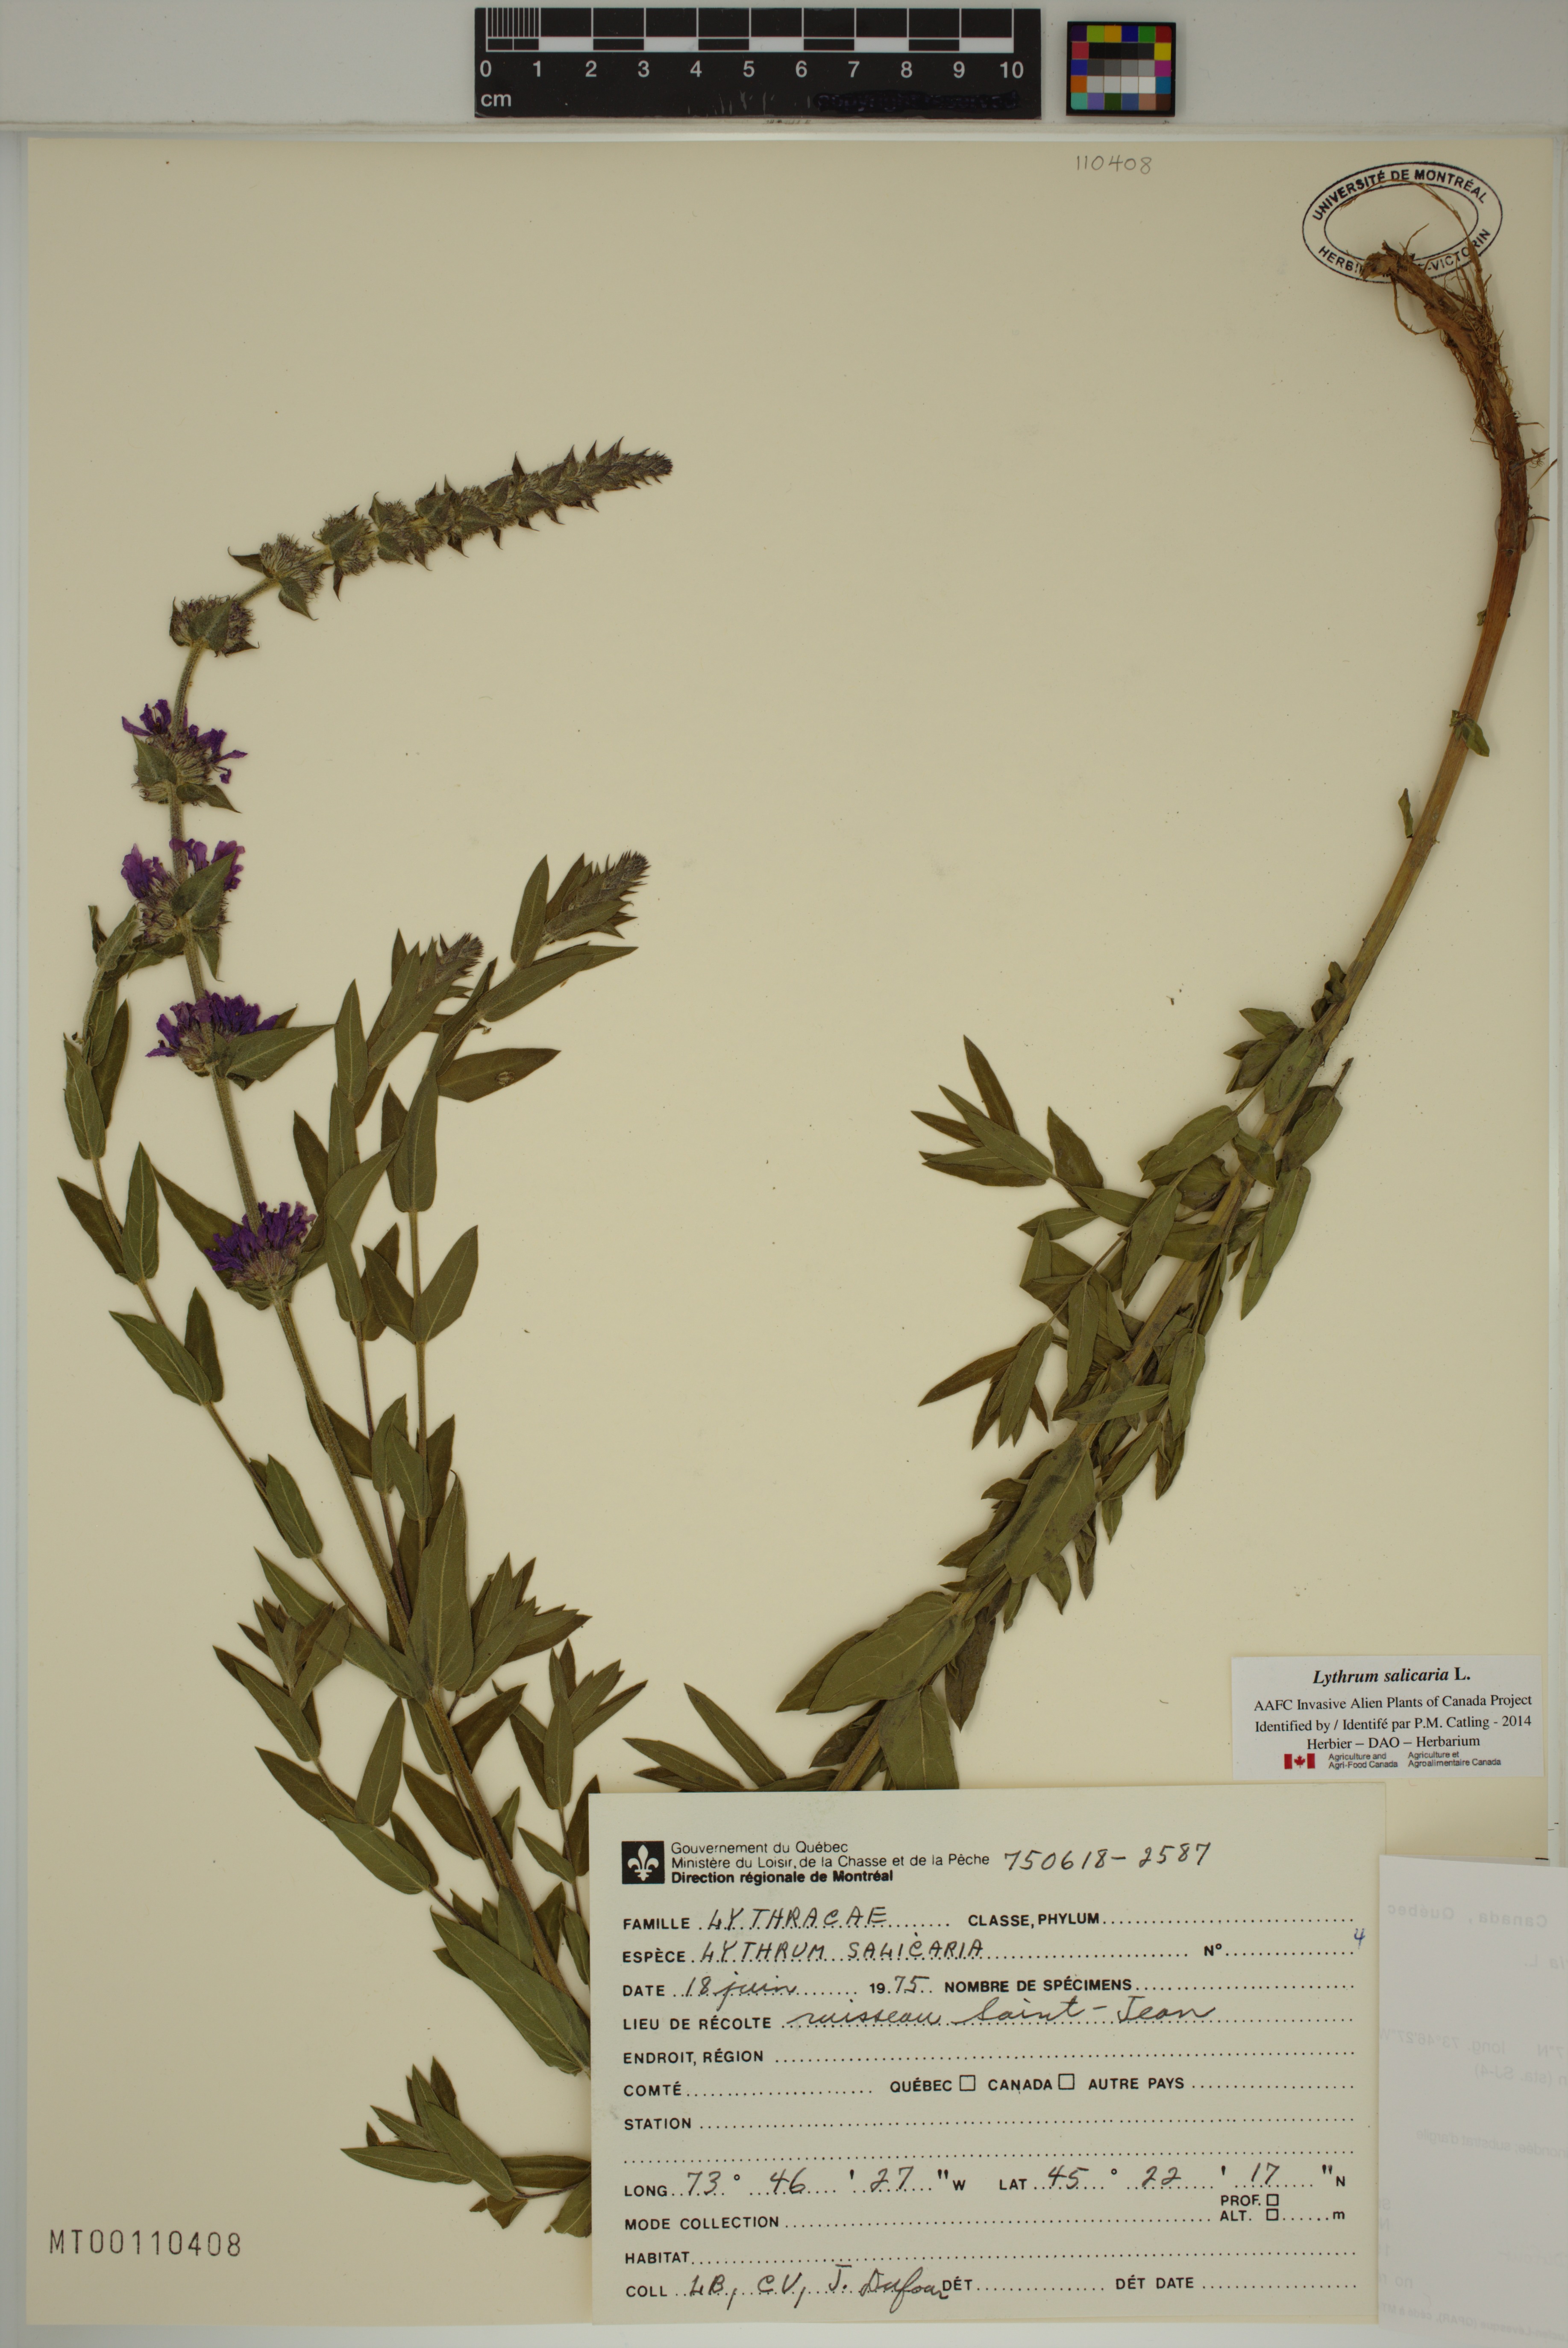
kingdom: Plantae
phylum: Tracheophyta
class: Magnoliopsida
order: Myrtales
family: Lythraceae
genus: Lythrum
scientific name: Lythrum salicaria
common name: Purple loosestrife
